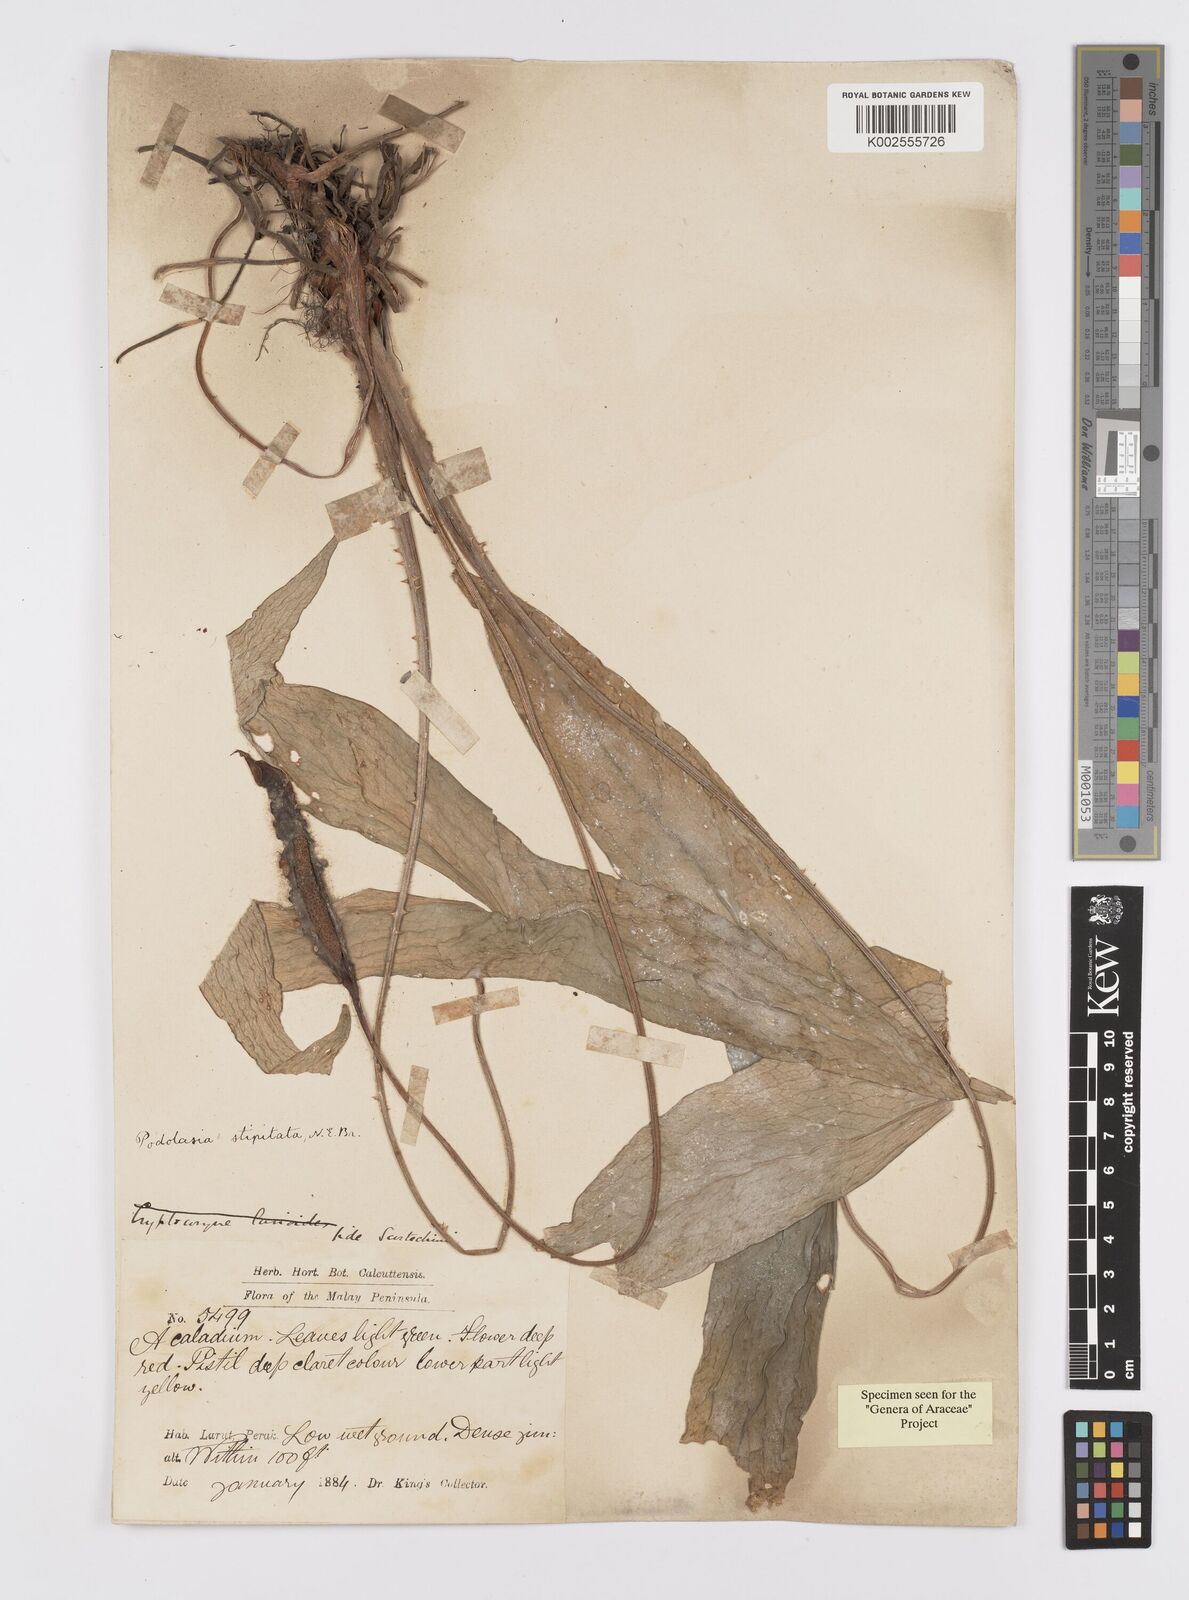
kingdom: Plantae
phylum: Tracheophyta
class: Liliopsida
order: Alismatales
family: Araceae
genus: Podolasia
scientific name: Podolasia stipitata
